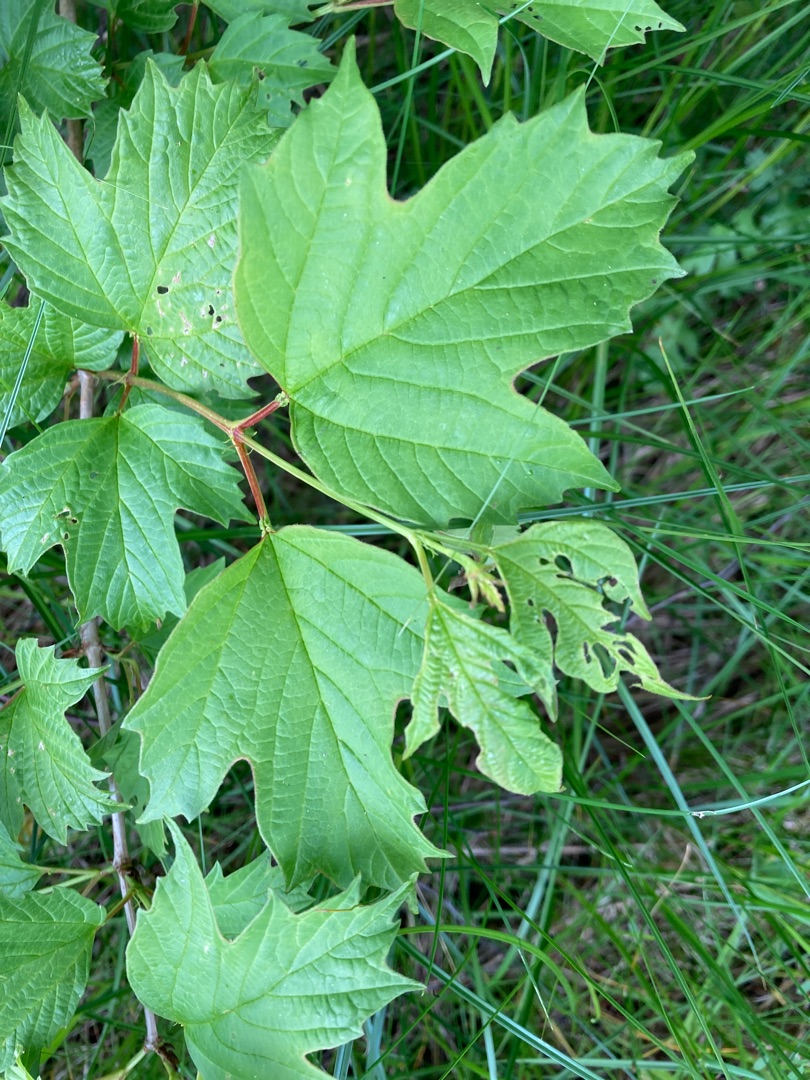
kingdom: Plantae
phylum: Tracheophyta
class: Magnoliopsida
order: Dipsacales
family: Viburnaceae
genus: Viburnum
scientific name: Viburnum opulus
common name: Kvalkved
